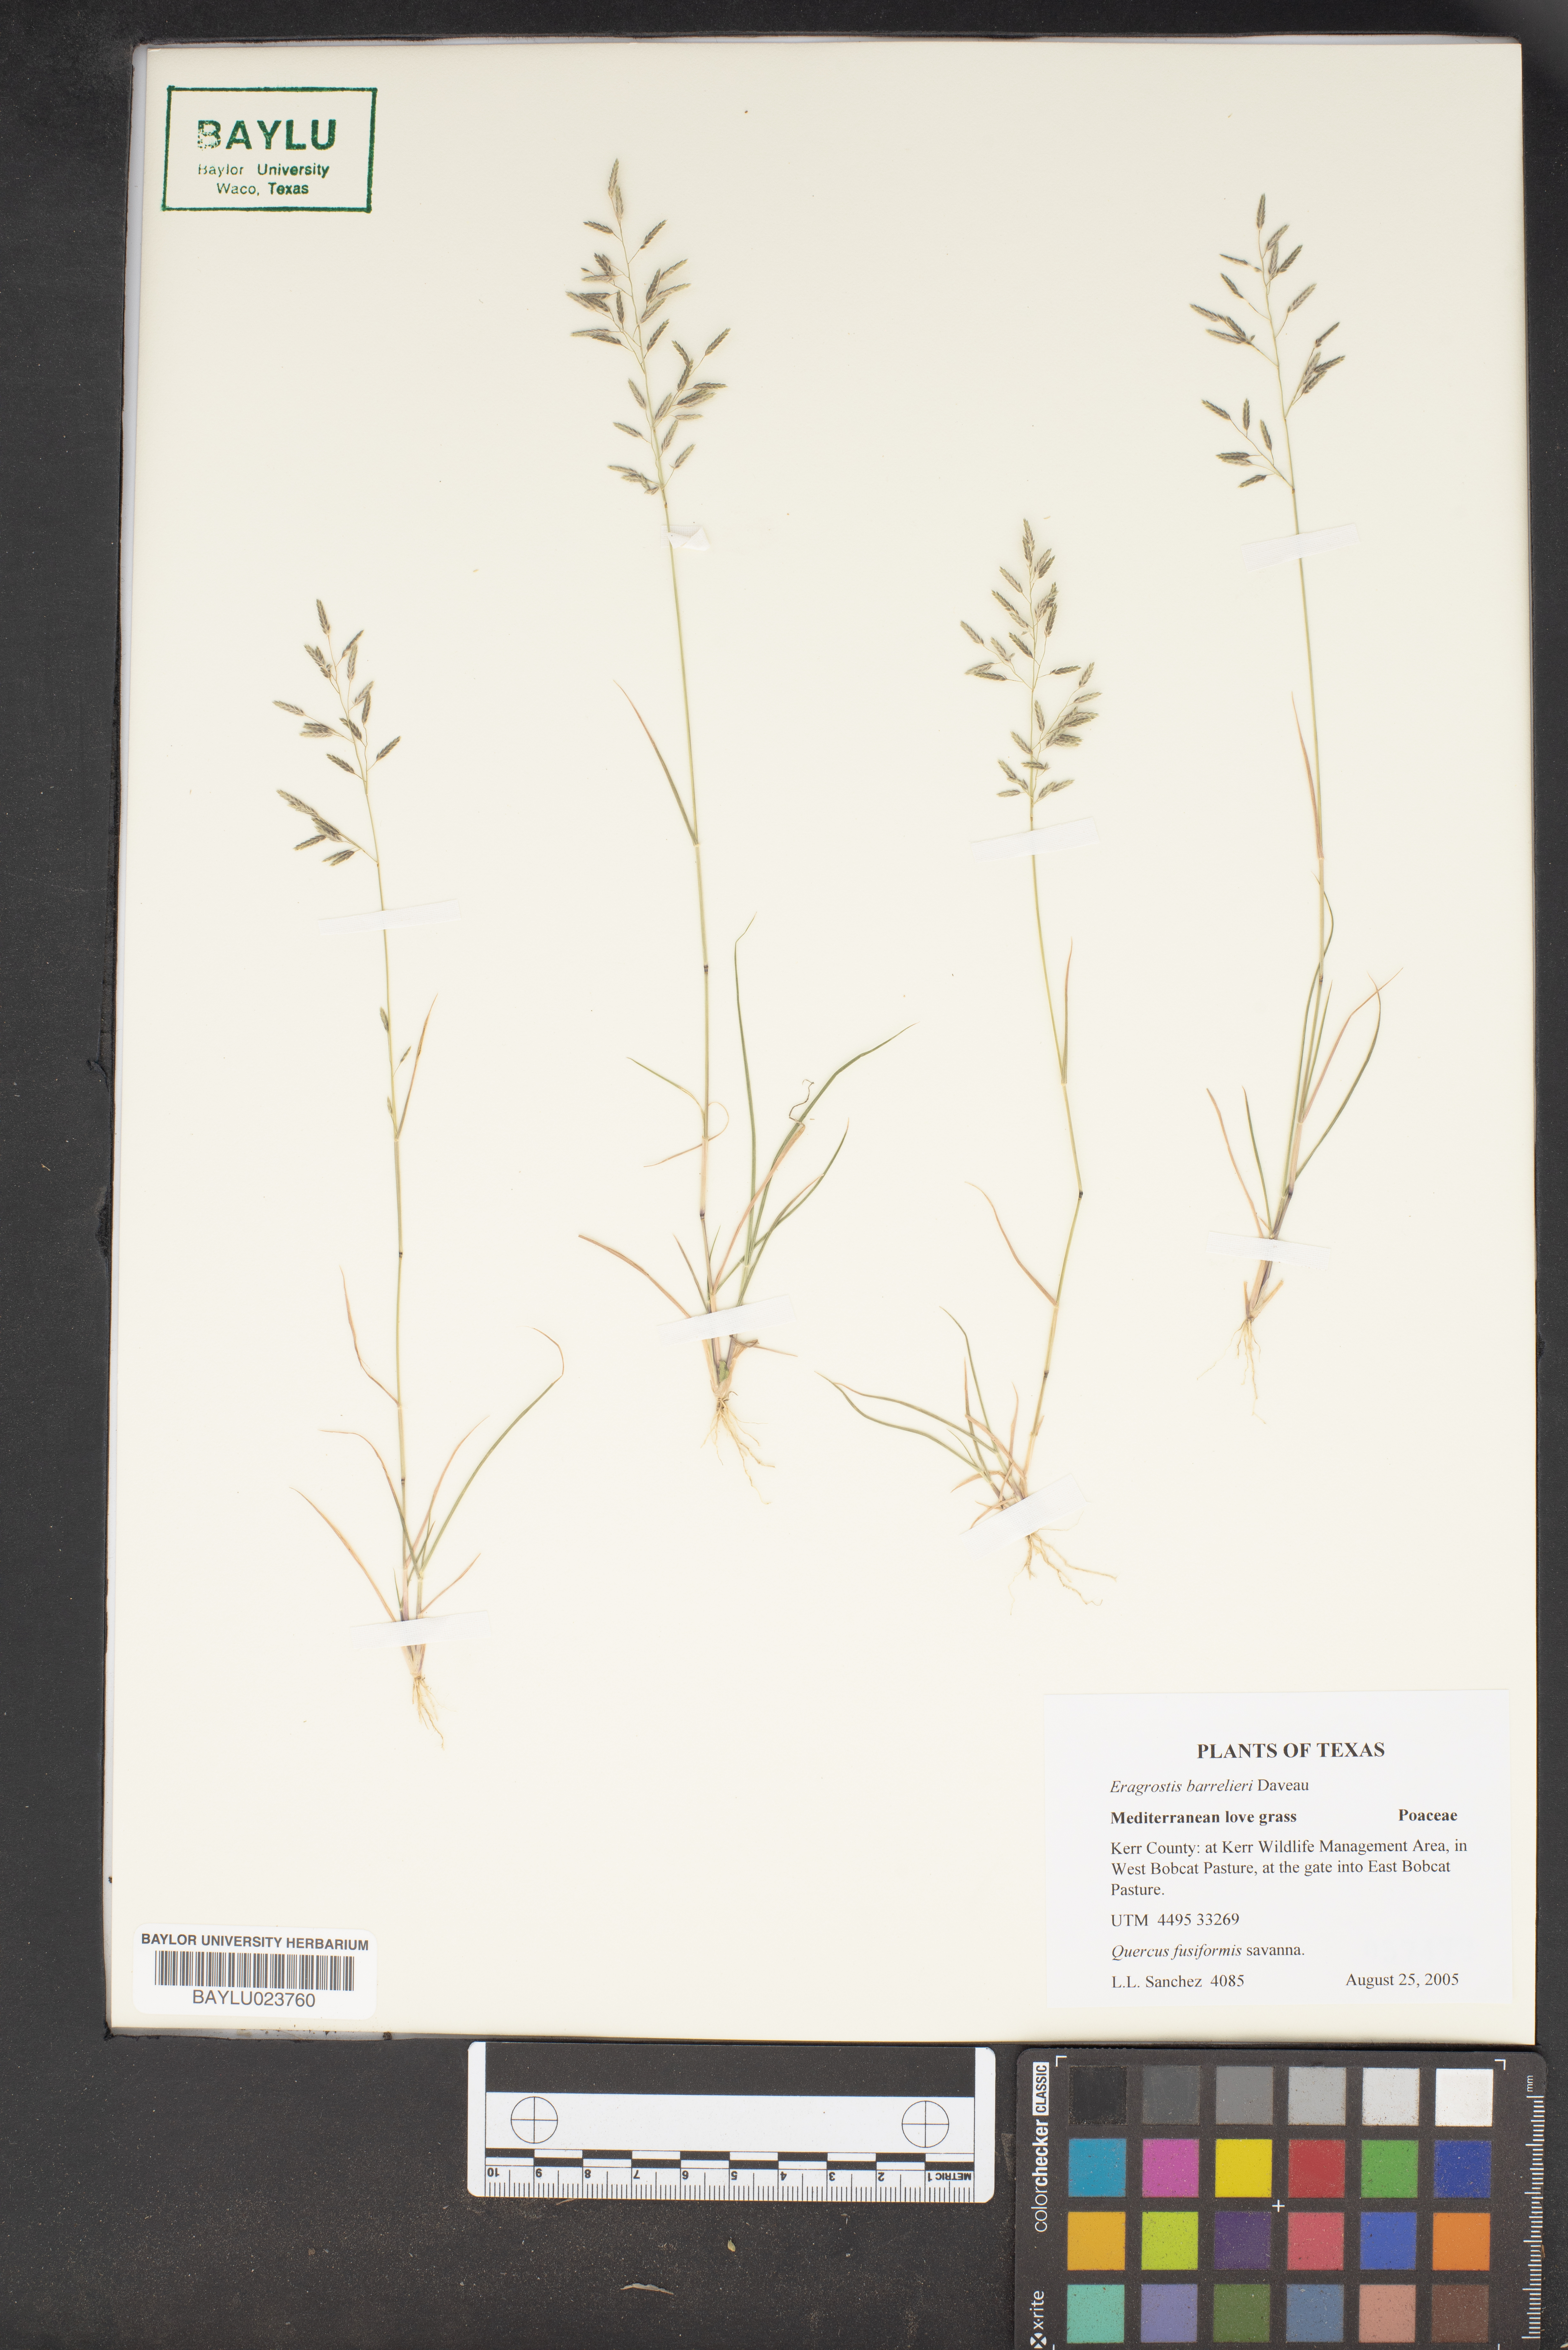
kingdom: Plantae
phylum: Tracheophyta
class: Liliopsida
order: Poales
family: Poaceae
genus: Eragrostis
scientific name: Eragrostis barrelieri
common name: Mediterranean lovegrass
